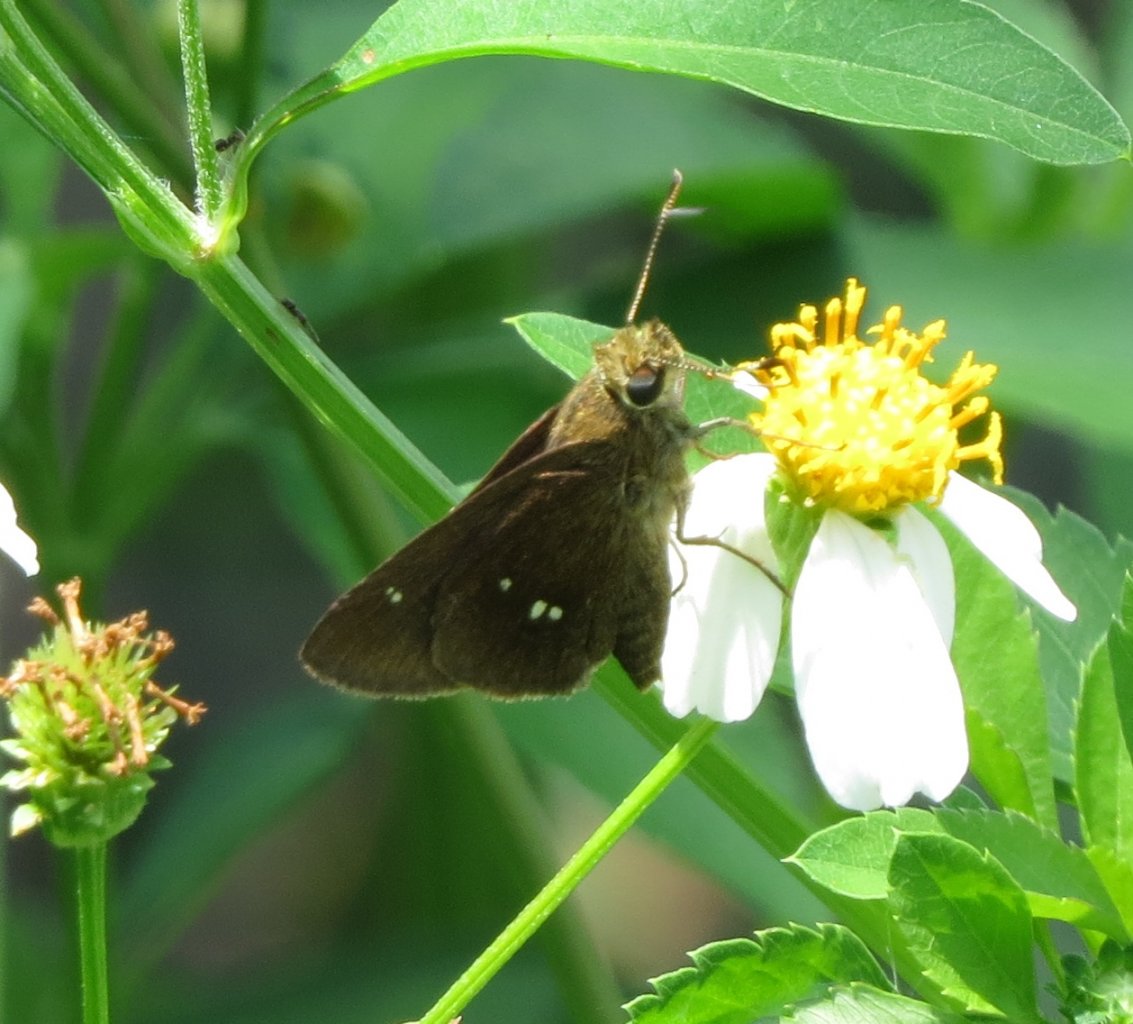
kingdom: Animalia
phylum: Arthropoda
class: Insecta
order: Lepidoptera
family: Hesperiidae
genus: Oligoria
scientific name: Oligoria maculata
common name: Twin-spot Skipper
